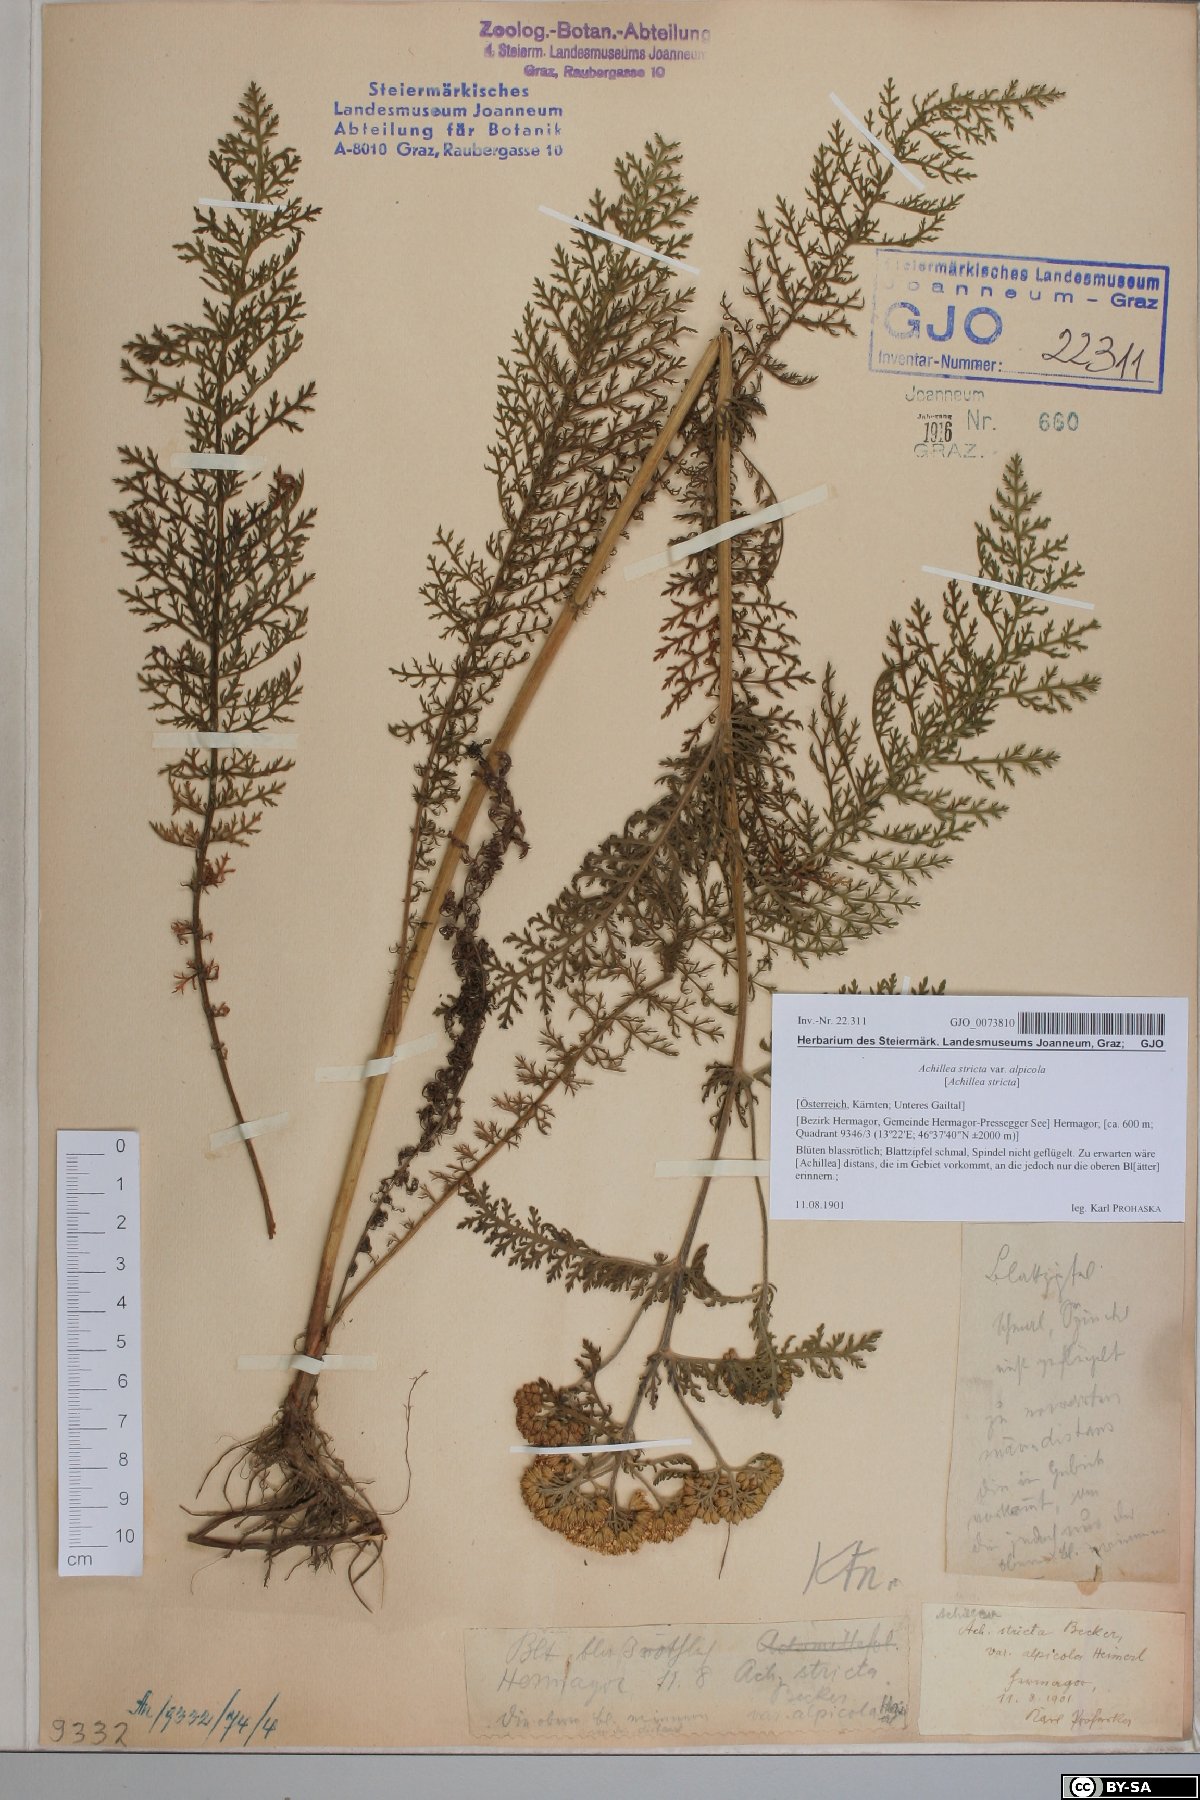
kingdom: Plantae
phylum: Tracheophyta
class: Magnoliopsida
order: Asterales
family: Asteraceae
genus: Achillea
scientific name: Achillea distans
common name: Tall yarrow
